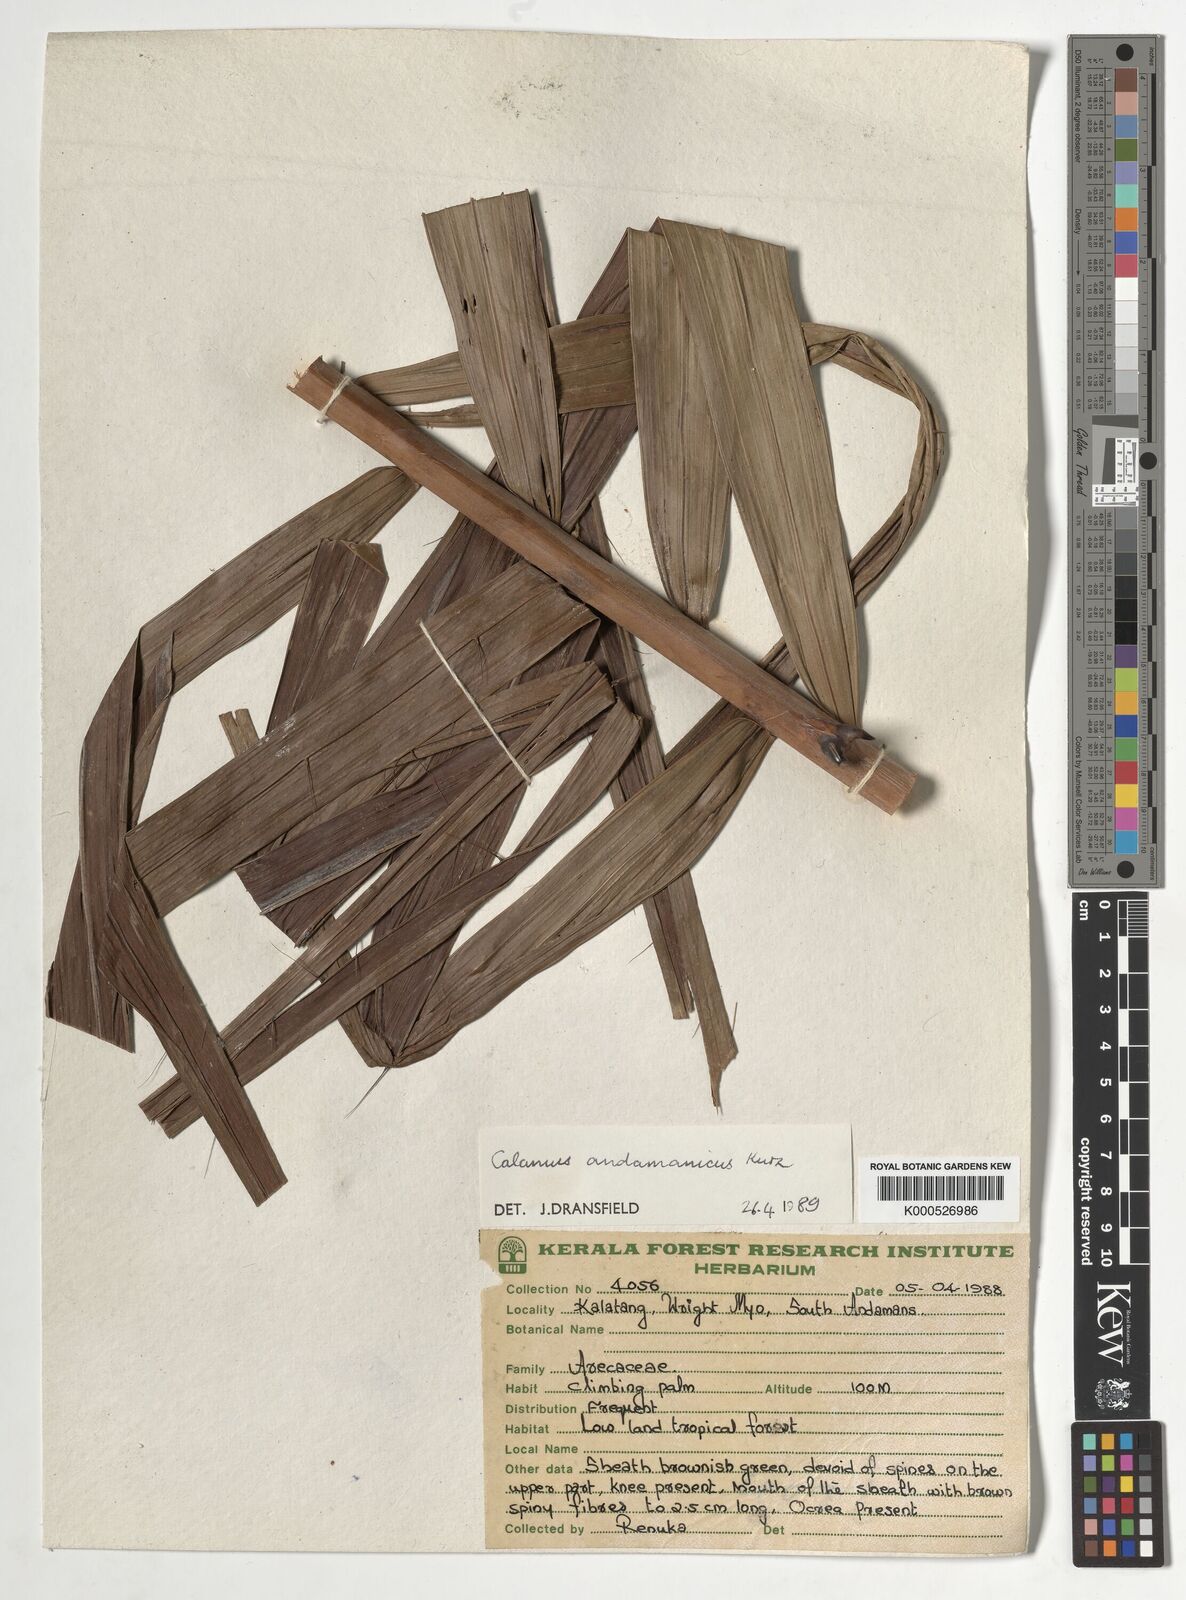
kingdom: Plantae
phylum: Tracheophyta
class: Liliopsida
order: Arecales
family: Arecaceae
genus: Calamus
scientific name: Calamus andamanicus
